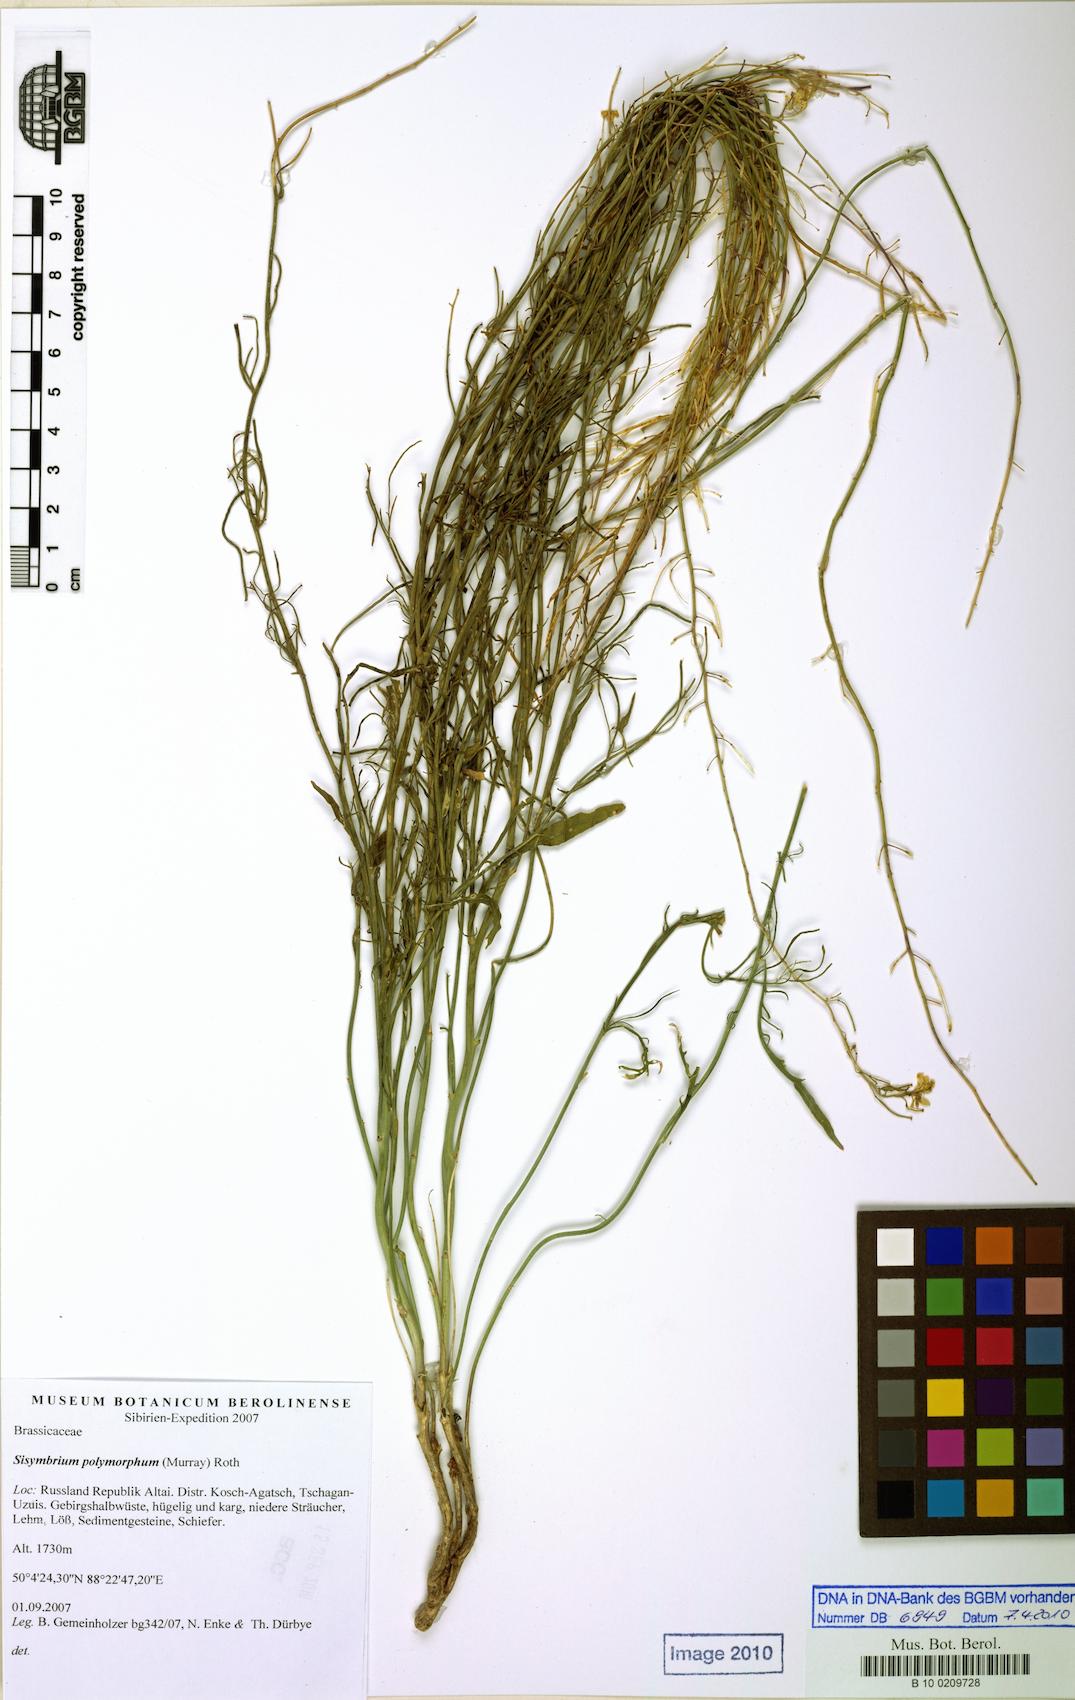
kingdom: Plantae
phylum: Tracheophyta
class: Magnoliopsida
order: Brassicales
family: Brassicaceae
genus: Sisymbrium
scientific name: Sisymbrium polymorphum
